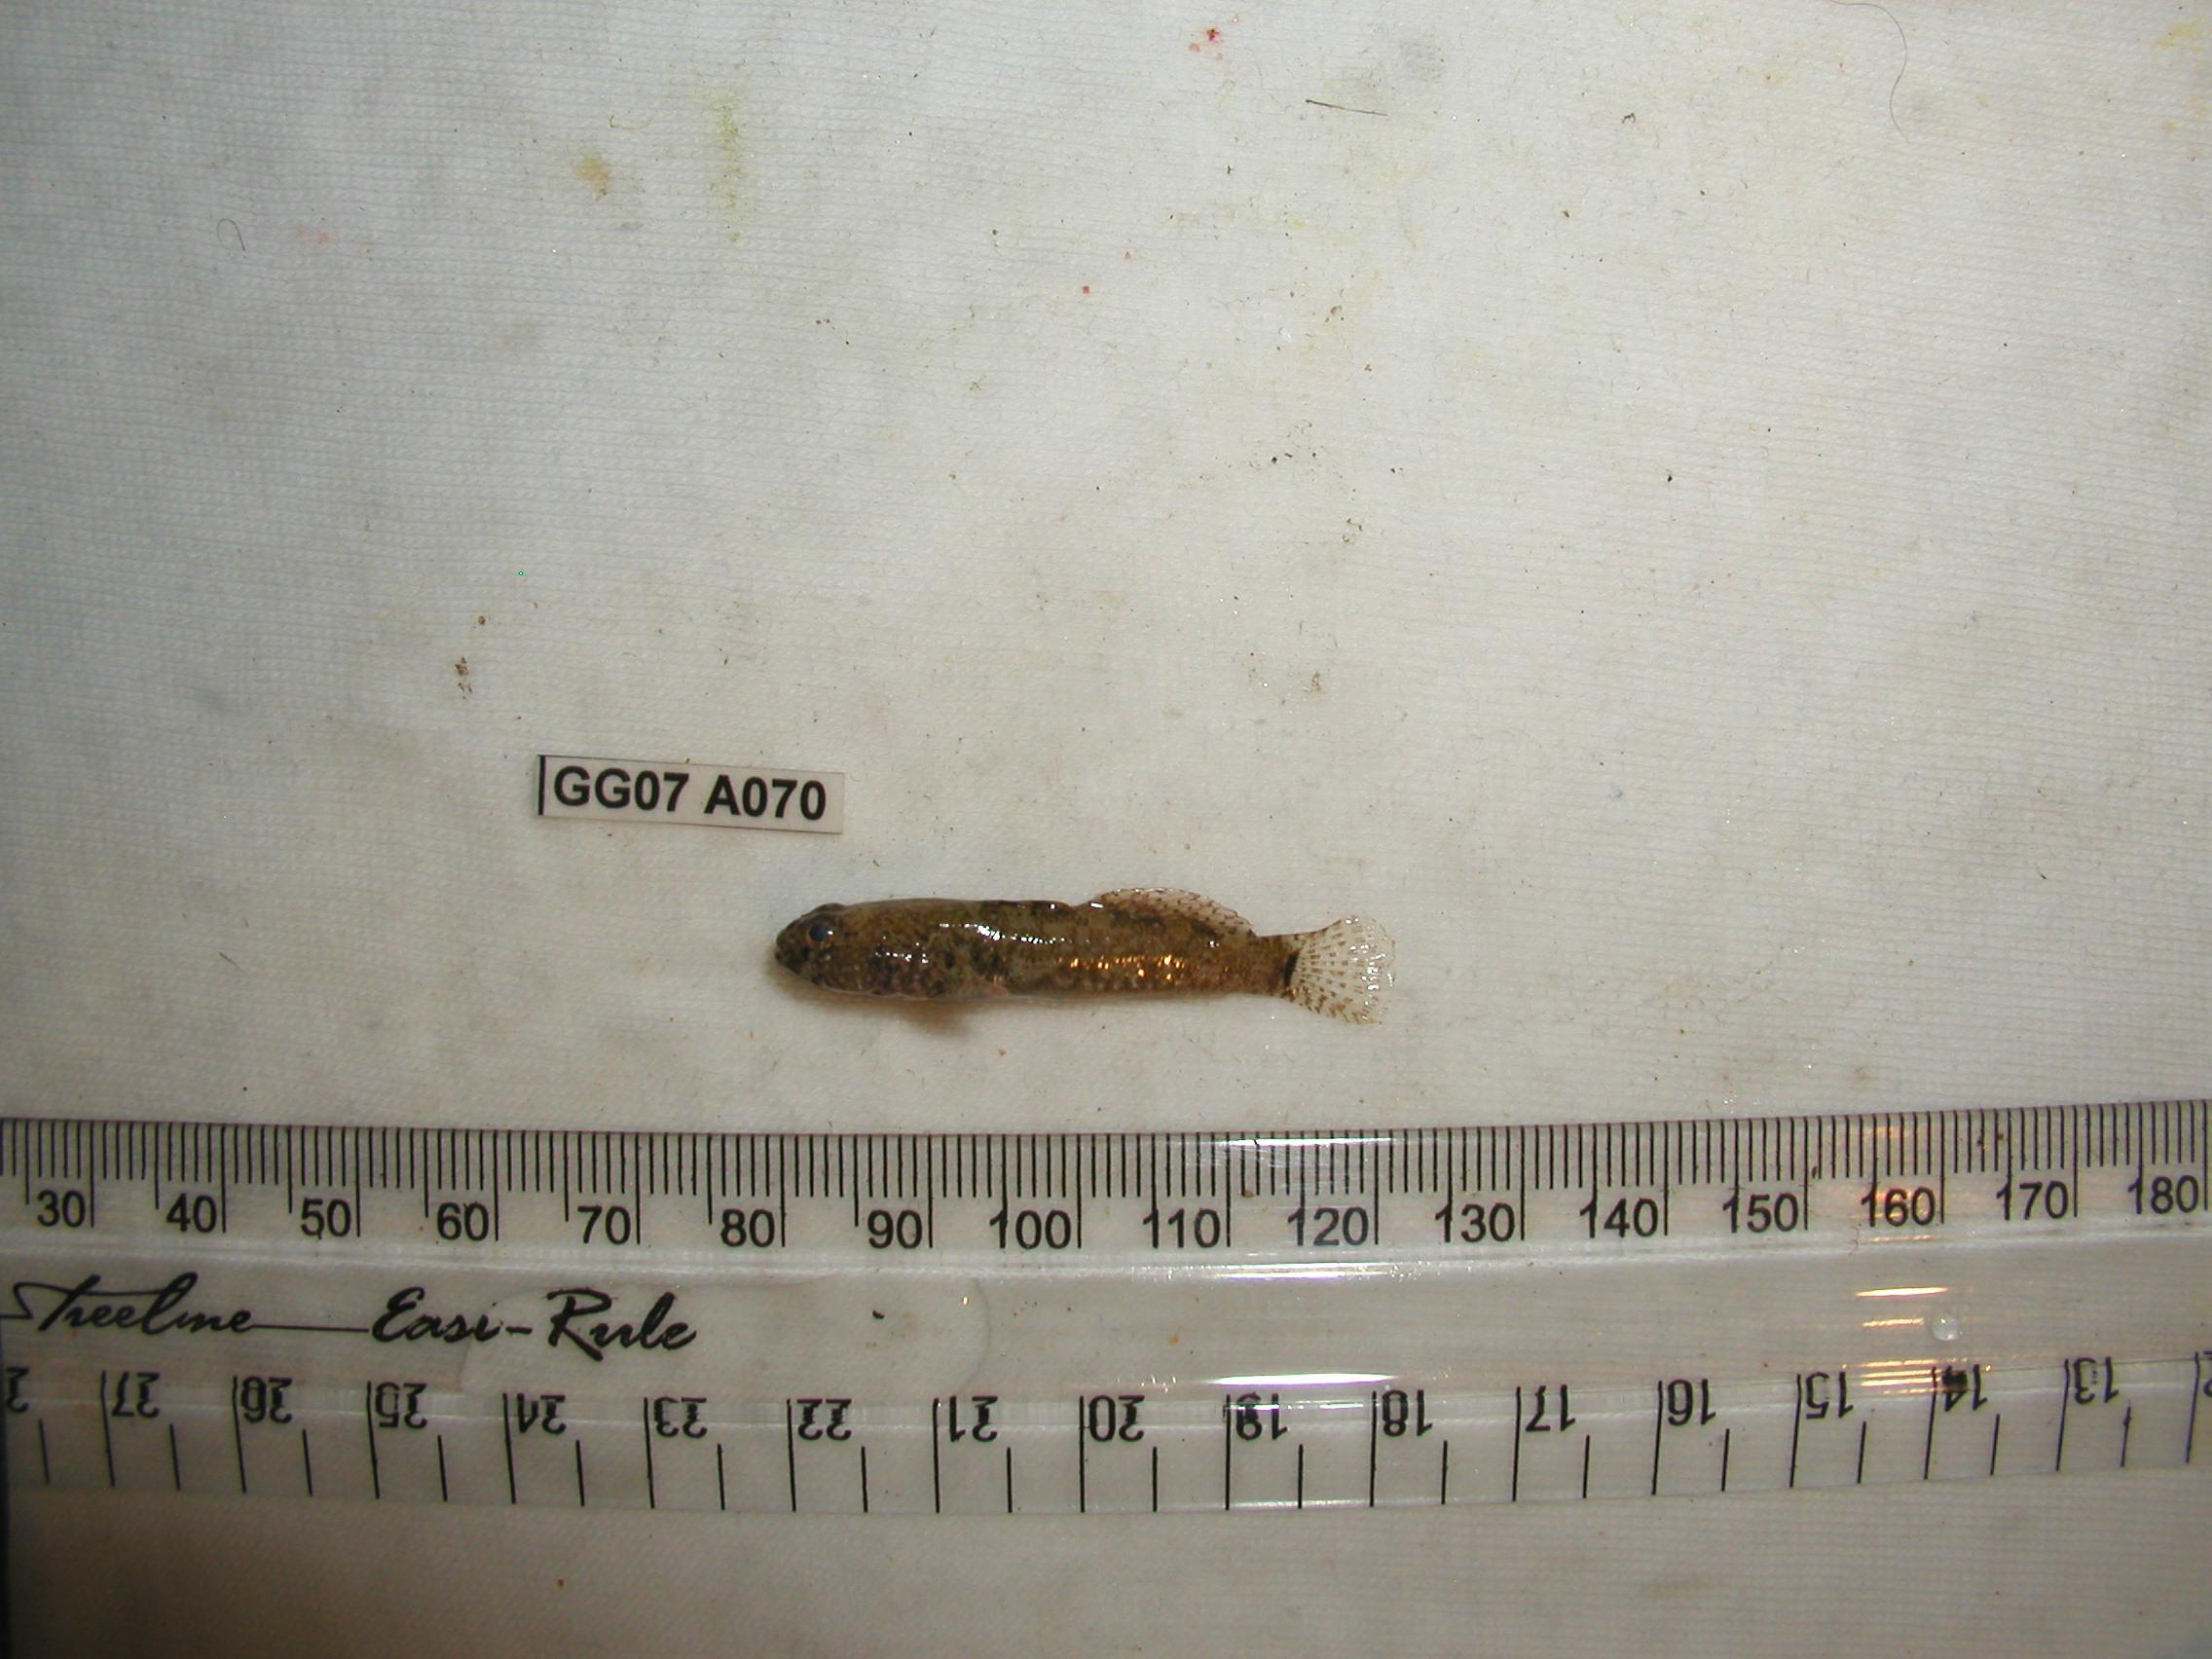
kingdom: Animalia
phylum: Chordata
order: Perciformes
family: Gobiidae
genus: Coryogalops
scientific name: Coryogalops william
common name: Kaalpens goby
